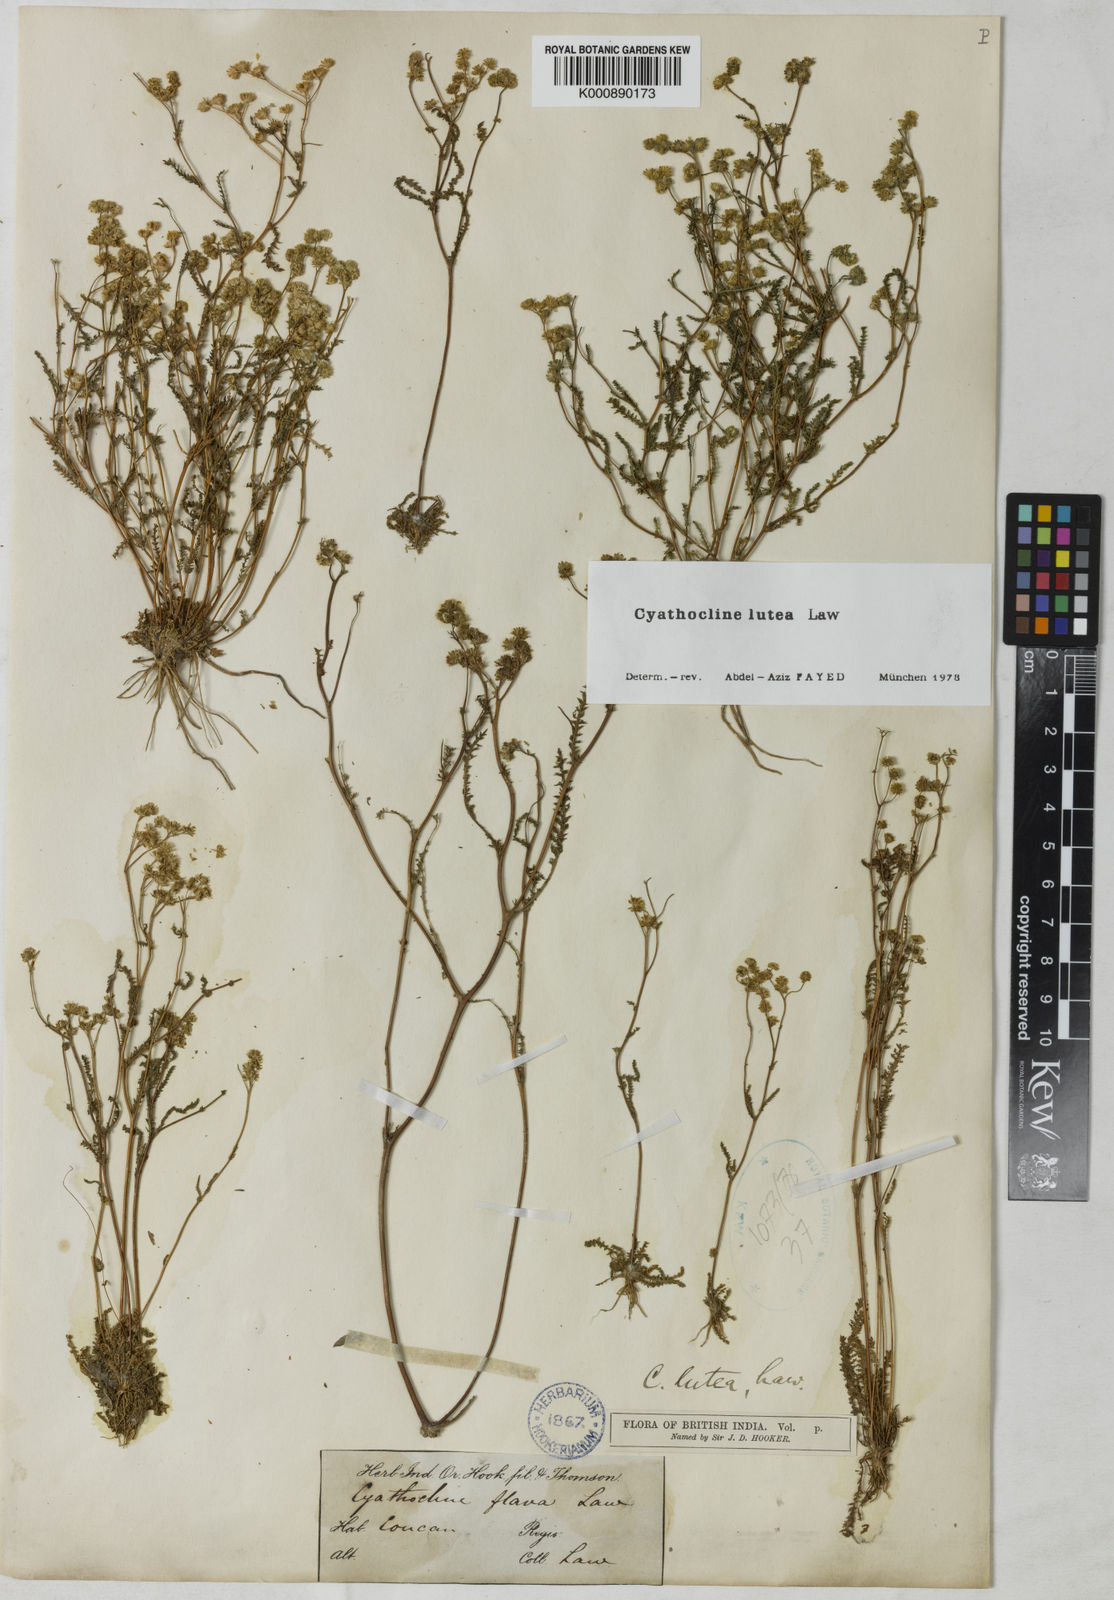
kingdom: Plantae
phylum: Tracheophyta
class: Magnoliopsida
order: Asterales
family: Asteraceae
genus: Cyathocline
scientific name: Cyathocline lutea
